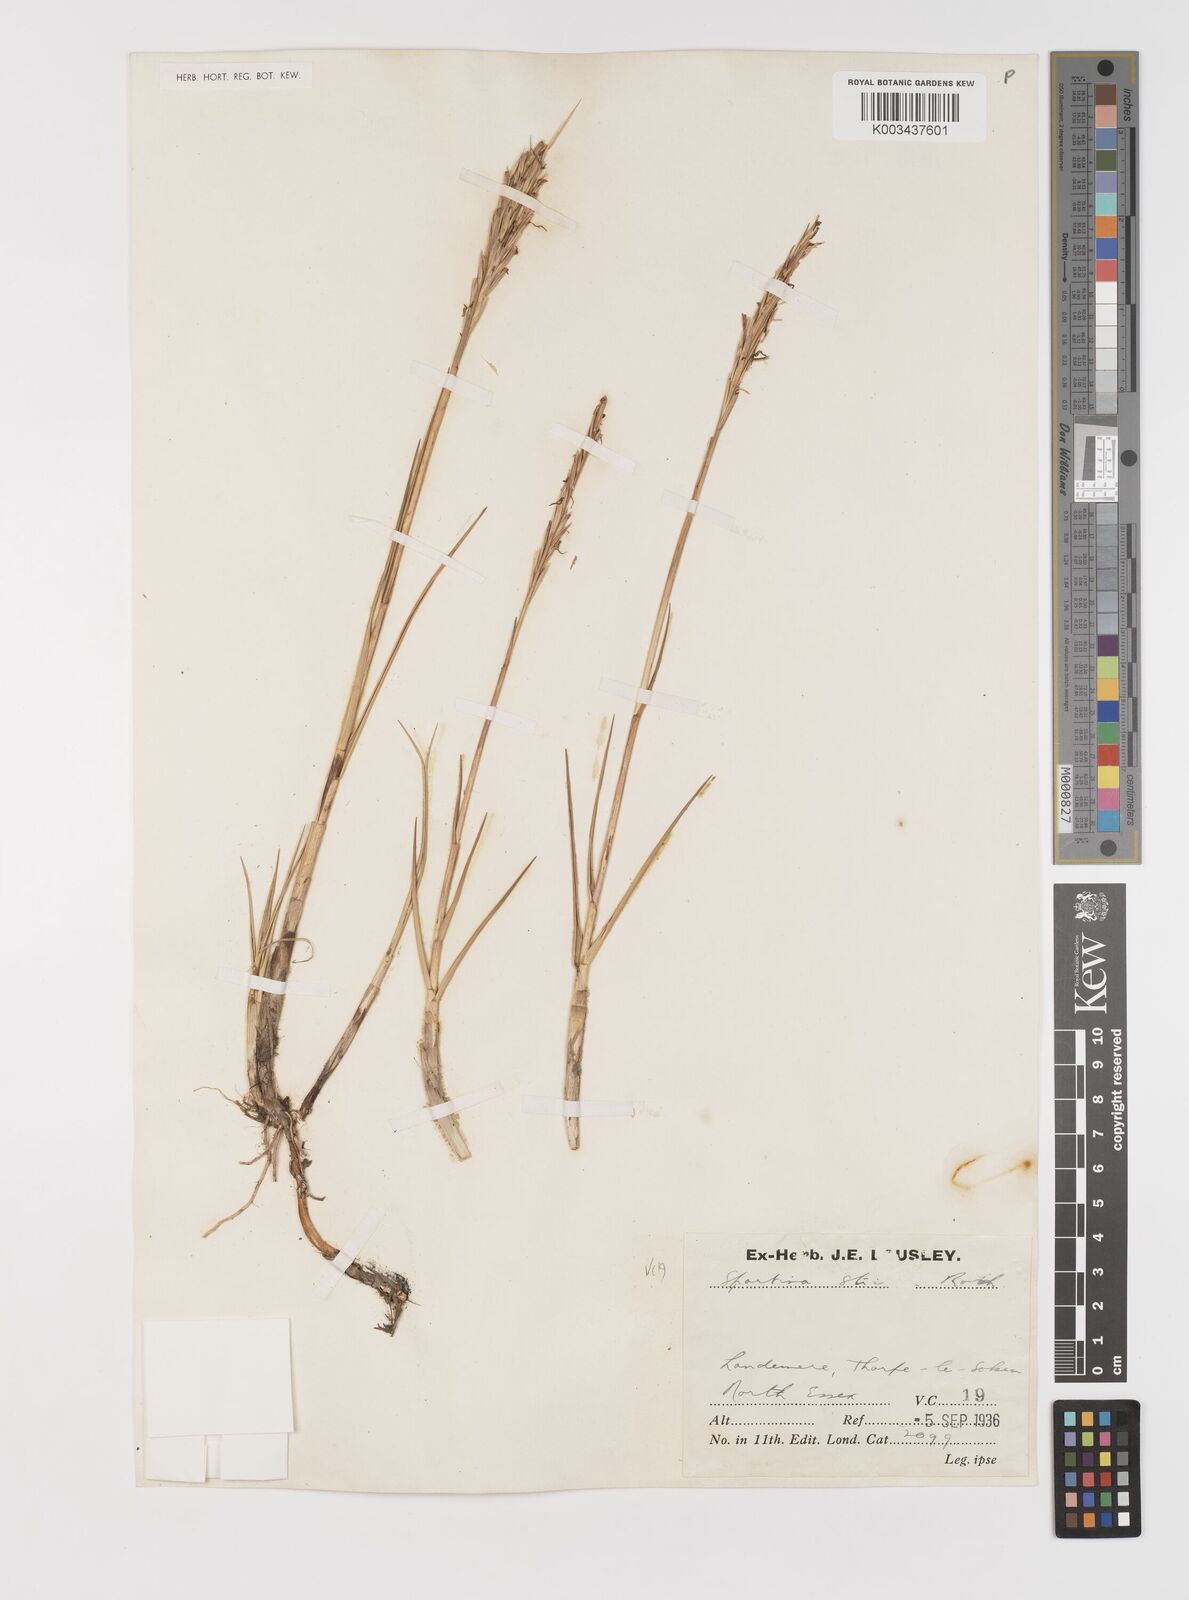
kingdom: Plantae
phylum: Tracheophyta
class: Liliopsida
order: Poales
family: Poaceae
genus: Sporobolus
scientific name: Sporobolus anglicus
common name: English cordgrass
